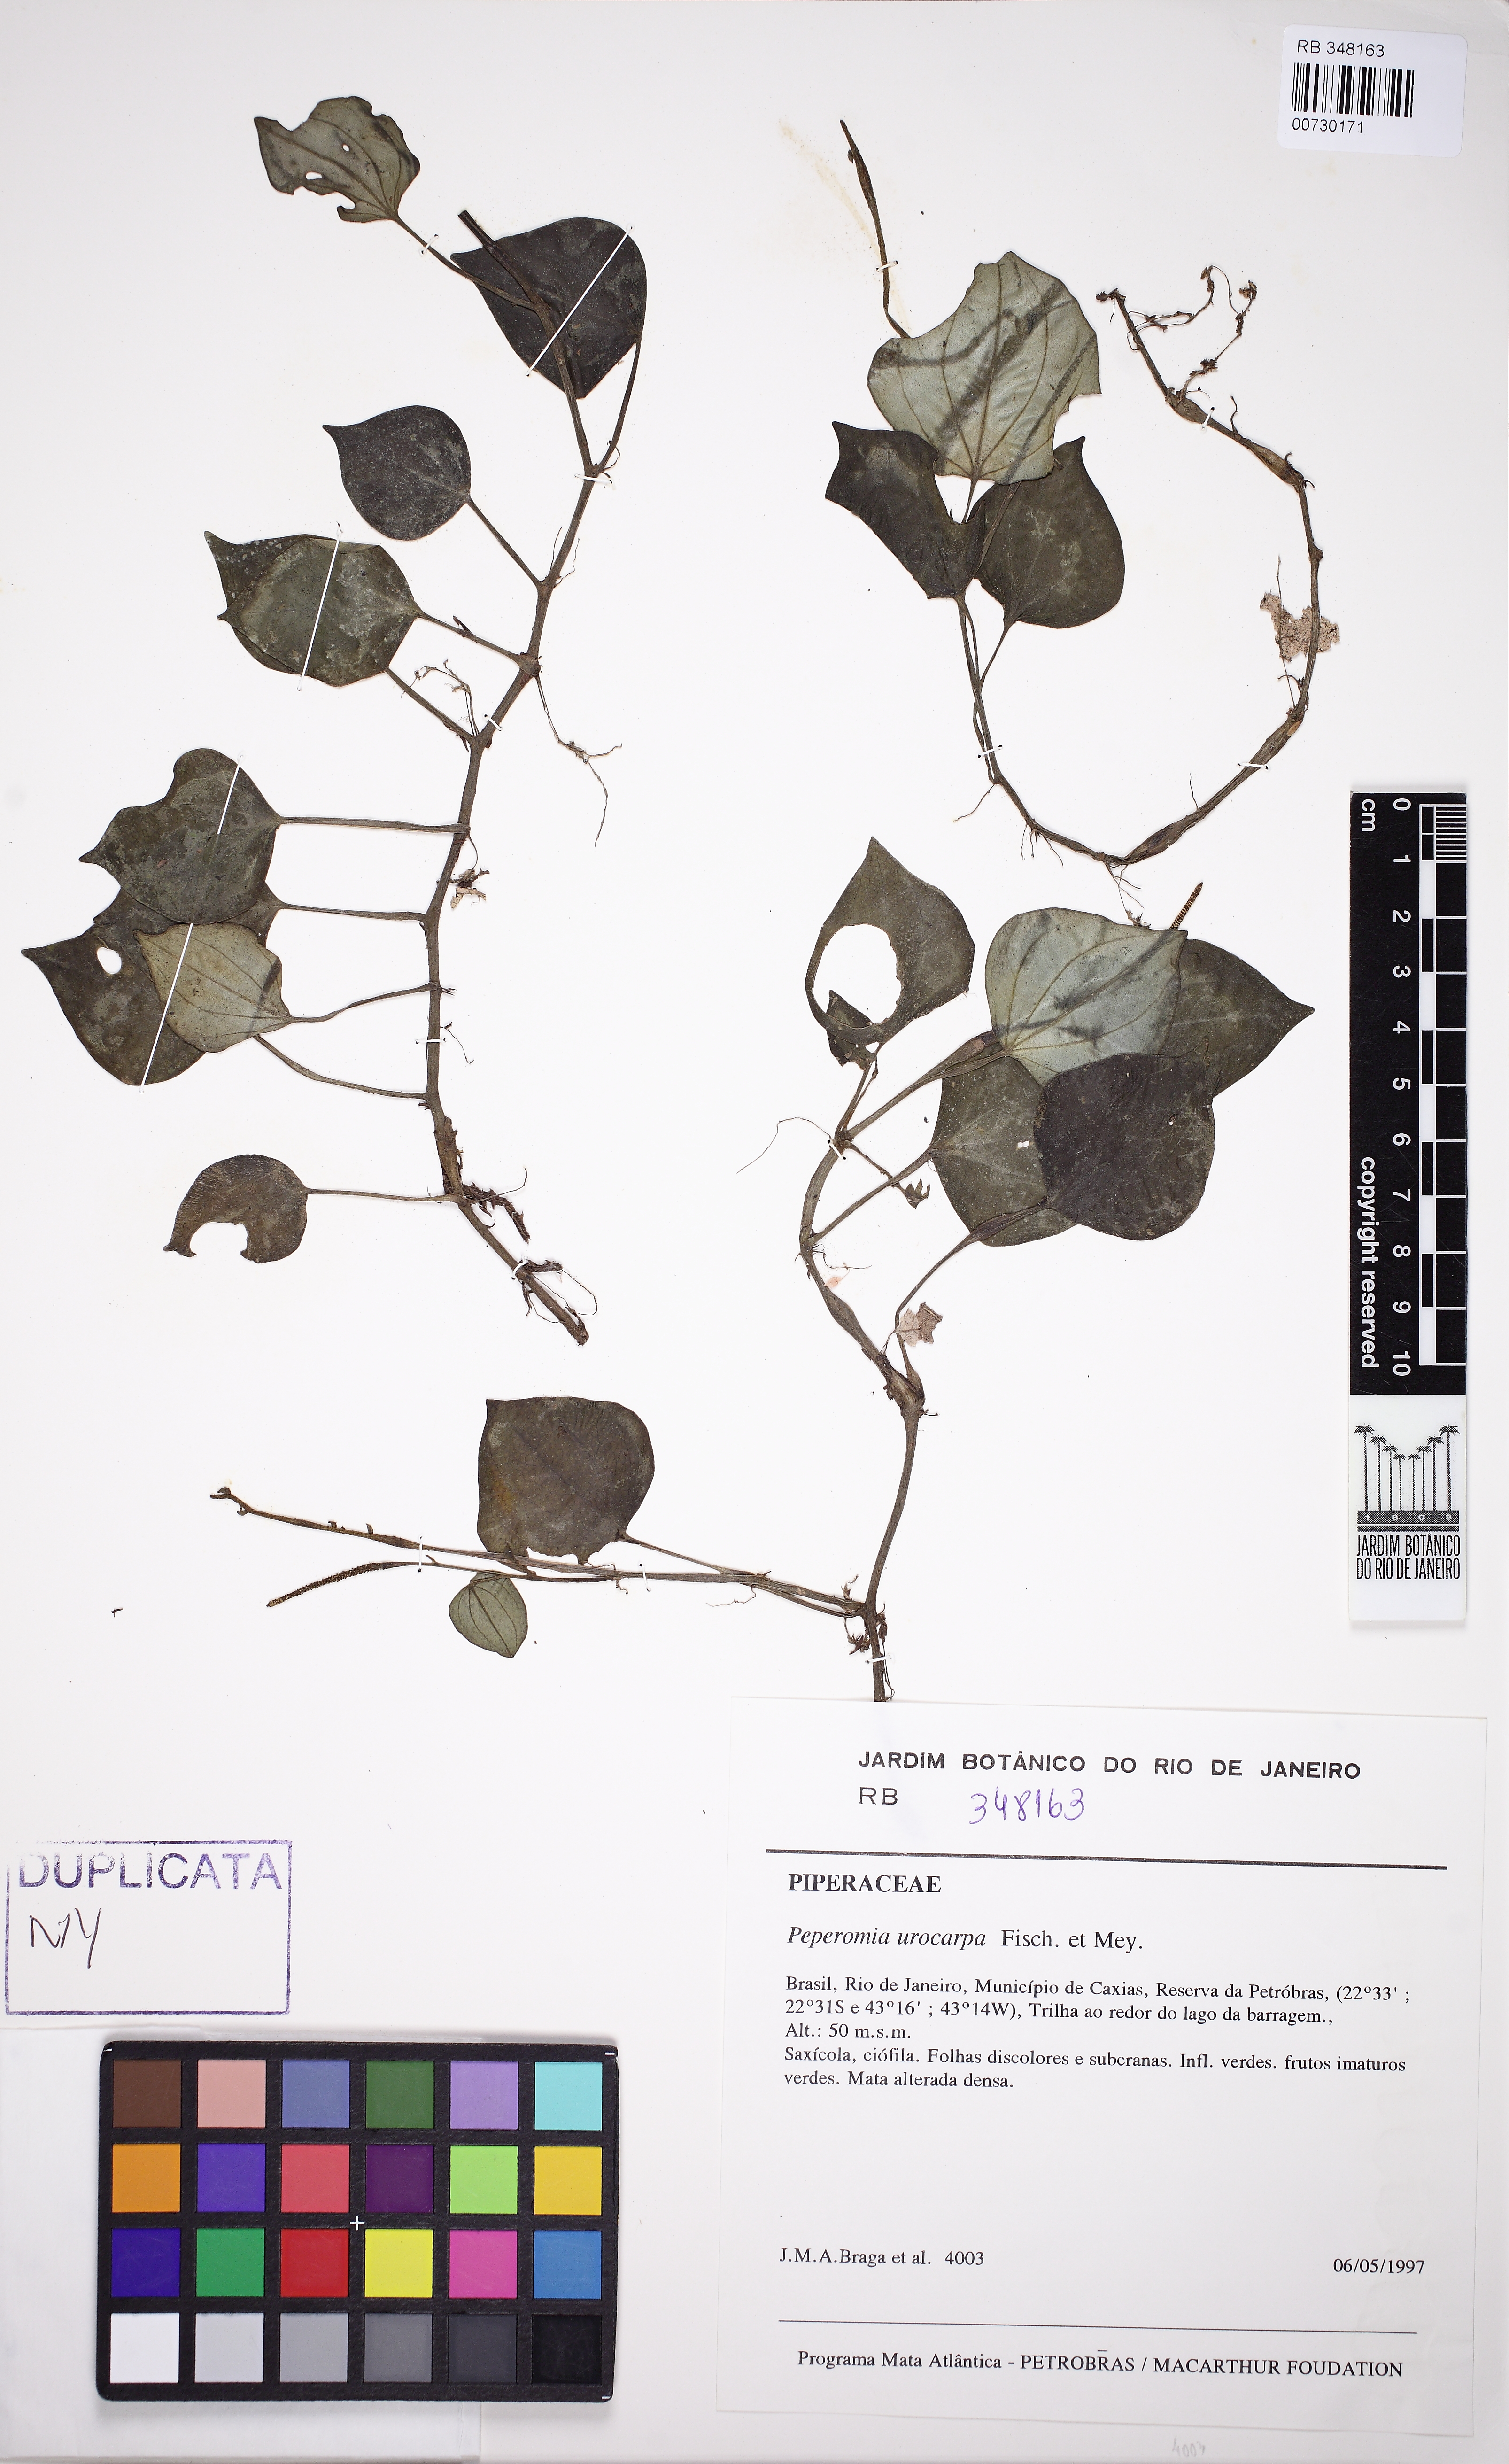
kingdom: Plantae
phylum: Tracheophyta
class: Magnoliopsida
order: Piperales
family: Piperaceae
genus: Peperomia
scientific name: Peperomia urocarpa
